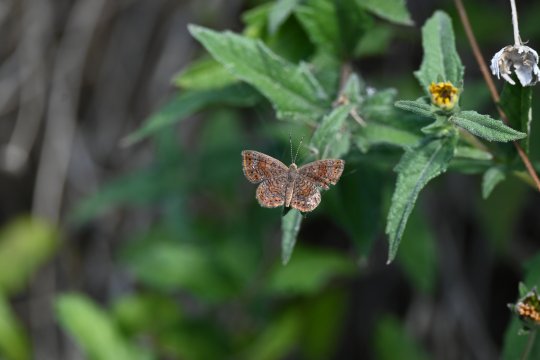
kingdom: Animalia
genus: Calephelis
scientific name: Calephelis perditalis
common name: Rounded Metalmark
